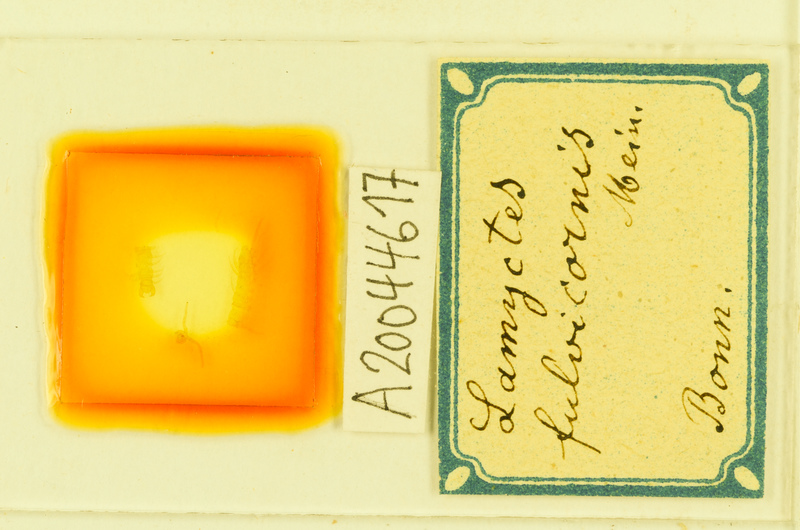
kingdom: Animalia
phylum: Arthropoda
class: Chilopoda
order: Lithobiomorpha
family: Henicopidae
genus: Lamyctes
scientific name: Lamyctes emarginatus
